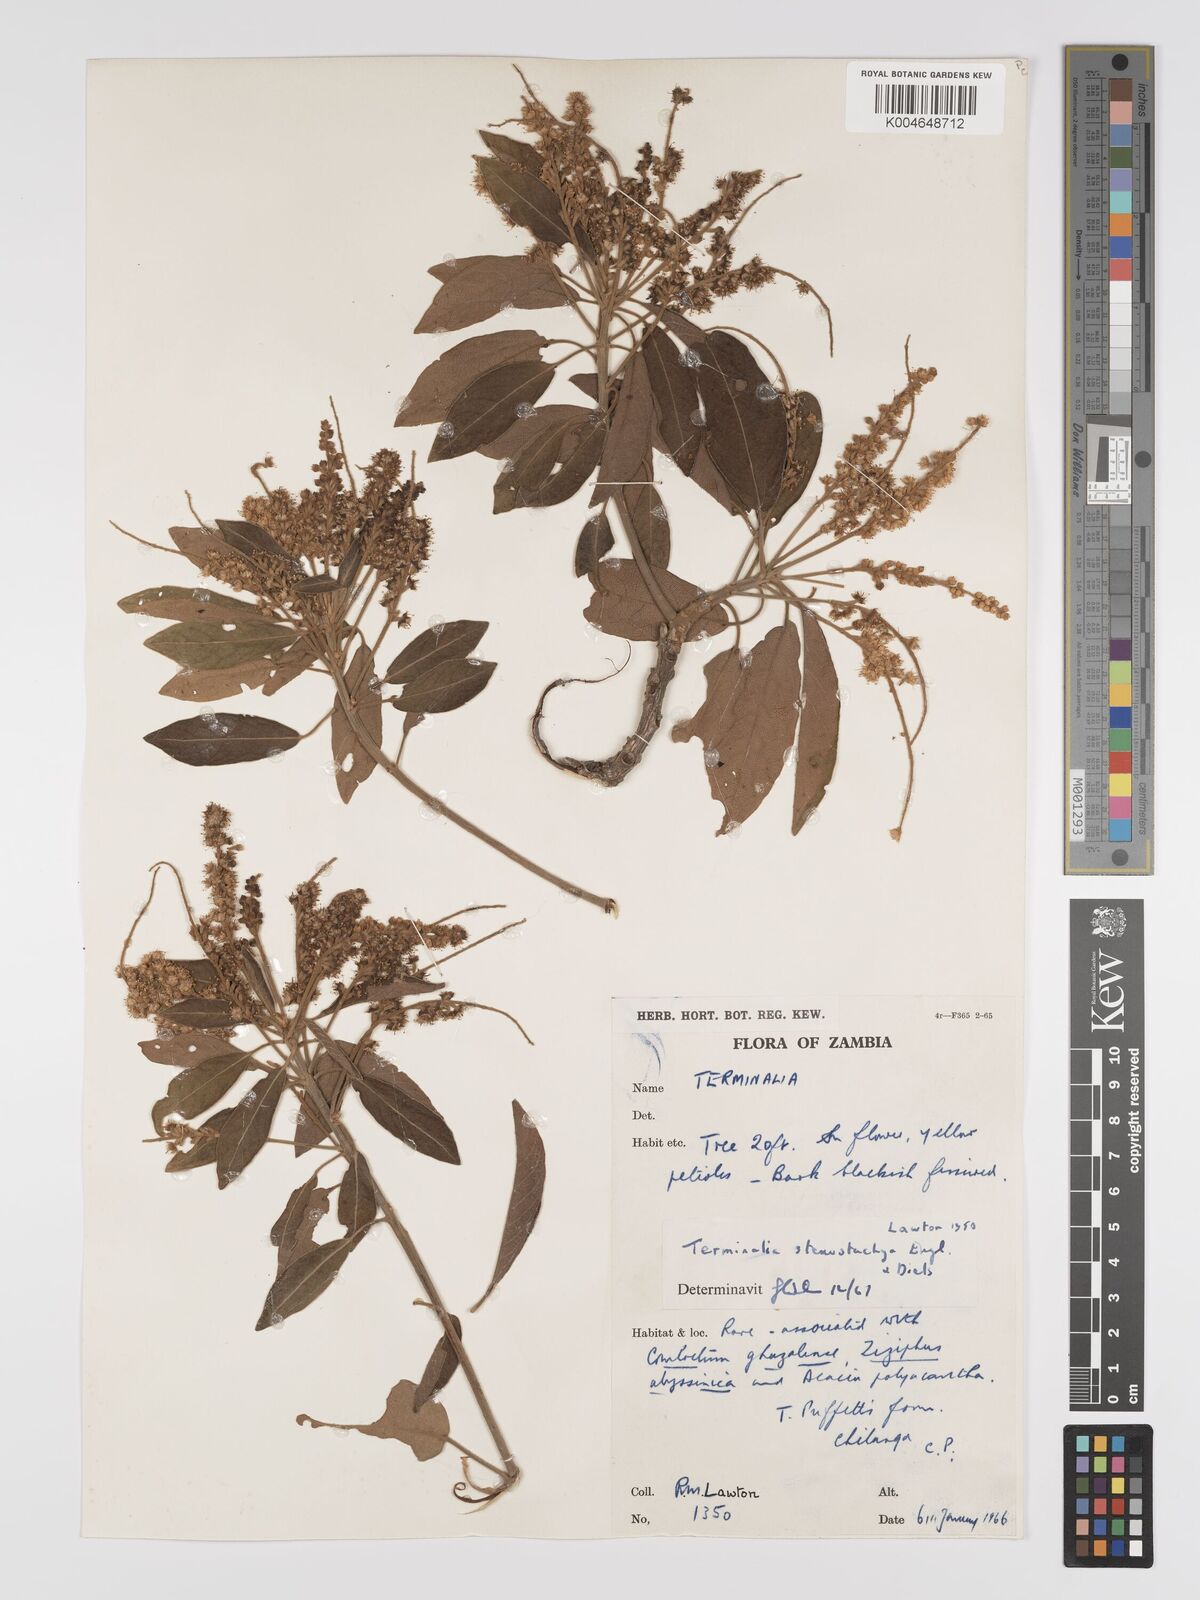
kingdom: Plantae
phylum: Tracheophyta
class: Magnoliopsida
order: Myrtales
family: Combretaceae
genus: Terminalia
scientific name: Terminalia stenostachya
